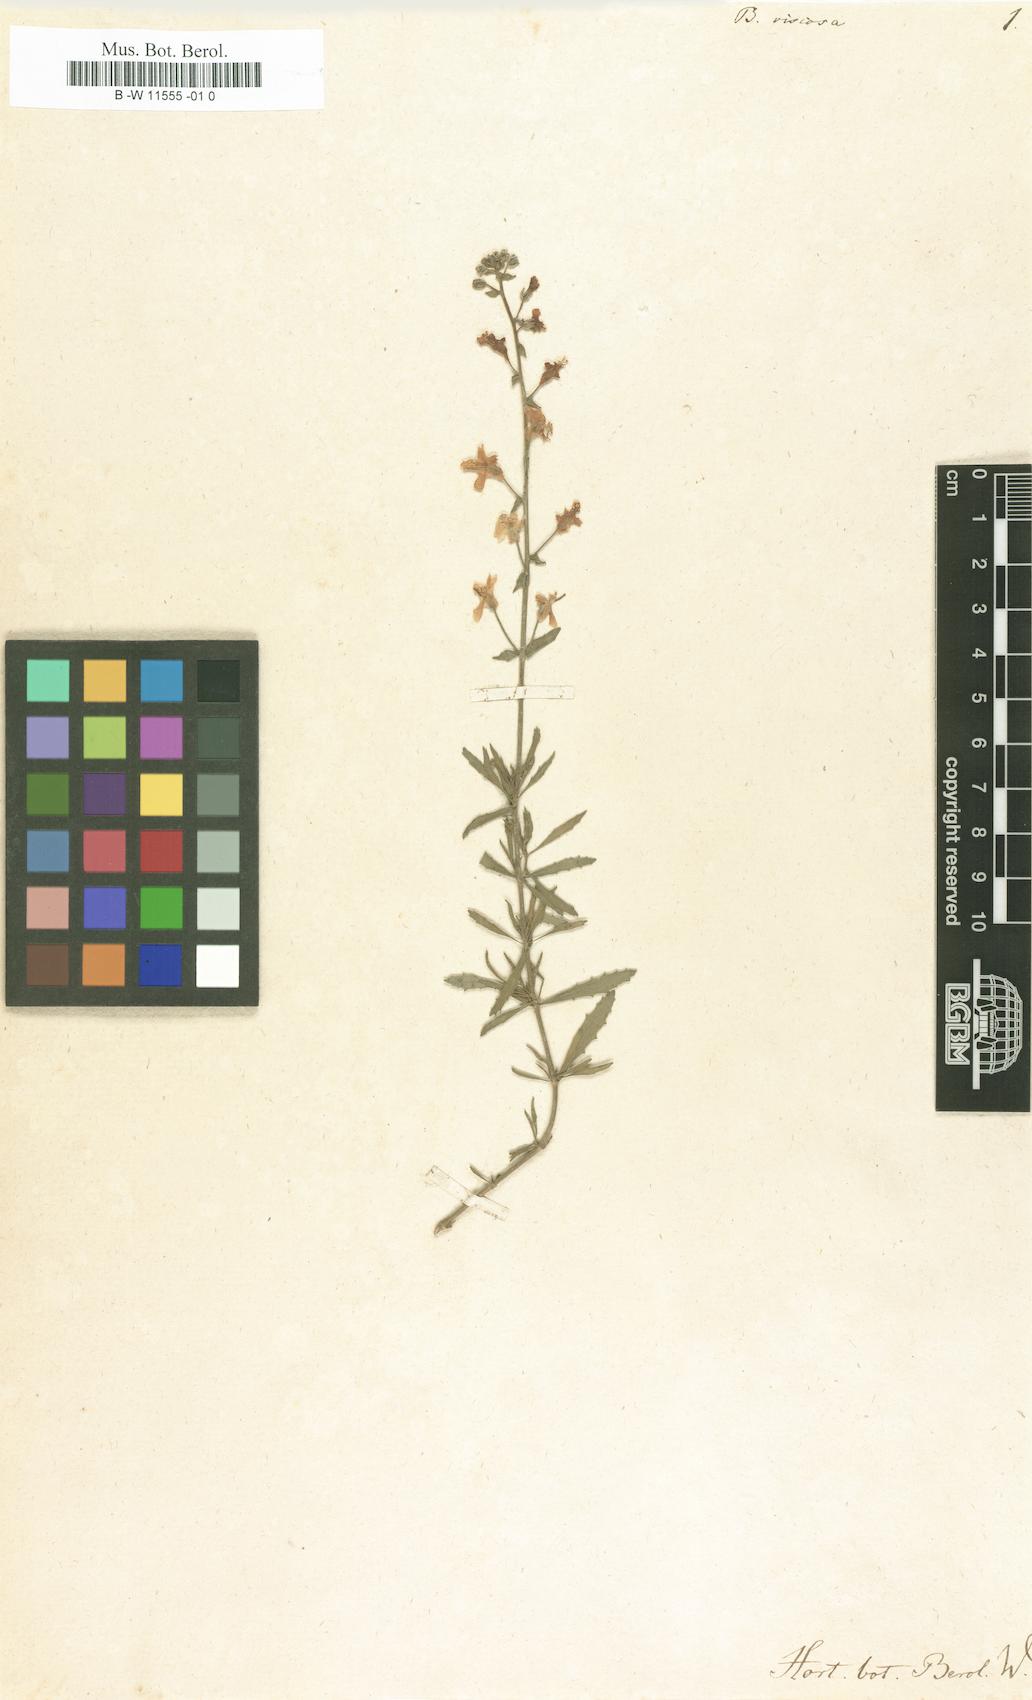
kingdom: Plantae
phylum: Tracheophyta
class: Magnoliopsida
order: Lamiales
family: Scrophulariaceae
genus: Chaenostoma
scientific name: Chaenostoma caeruleum
